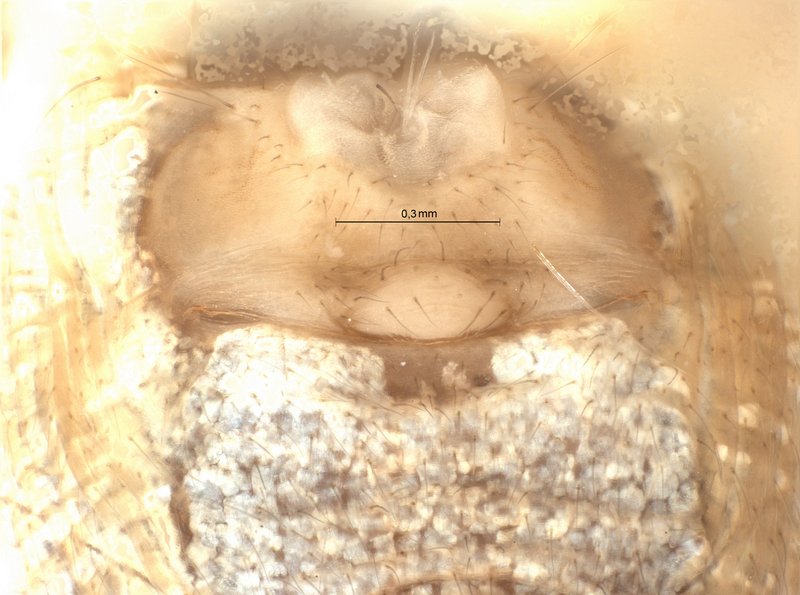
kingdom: Animalia
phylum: Arthropoda
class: Arachnida
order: Araneae
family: Araneidae
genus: Araniella
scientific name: Araniella cucurbitina
